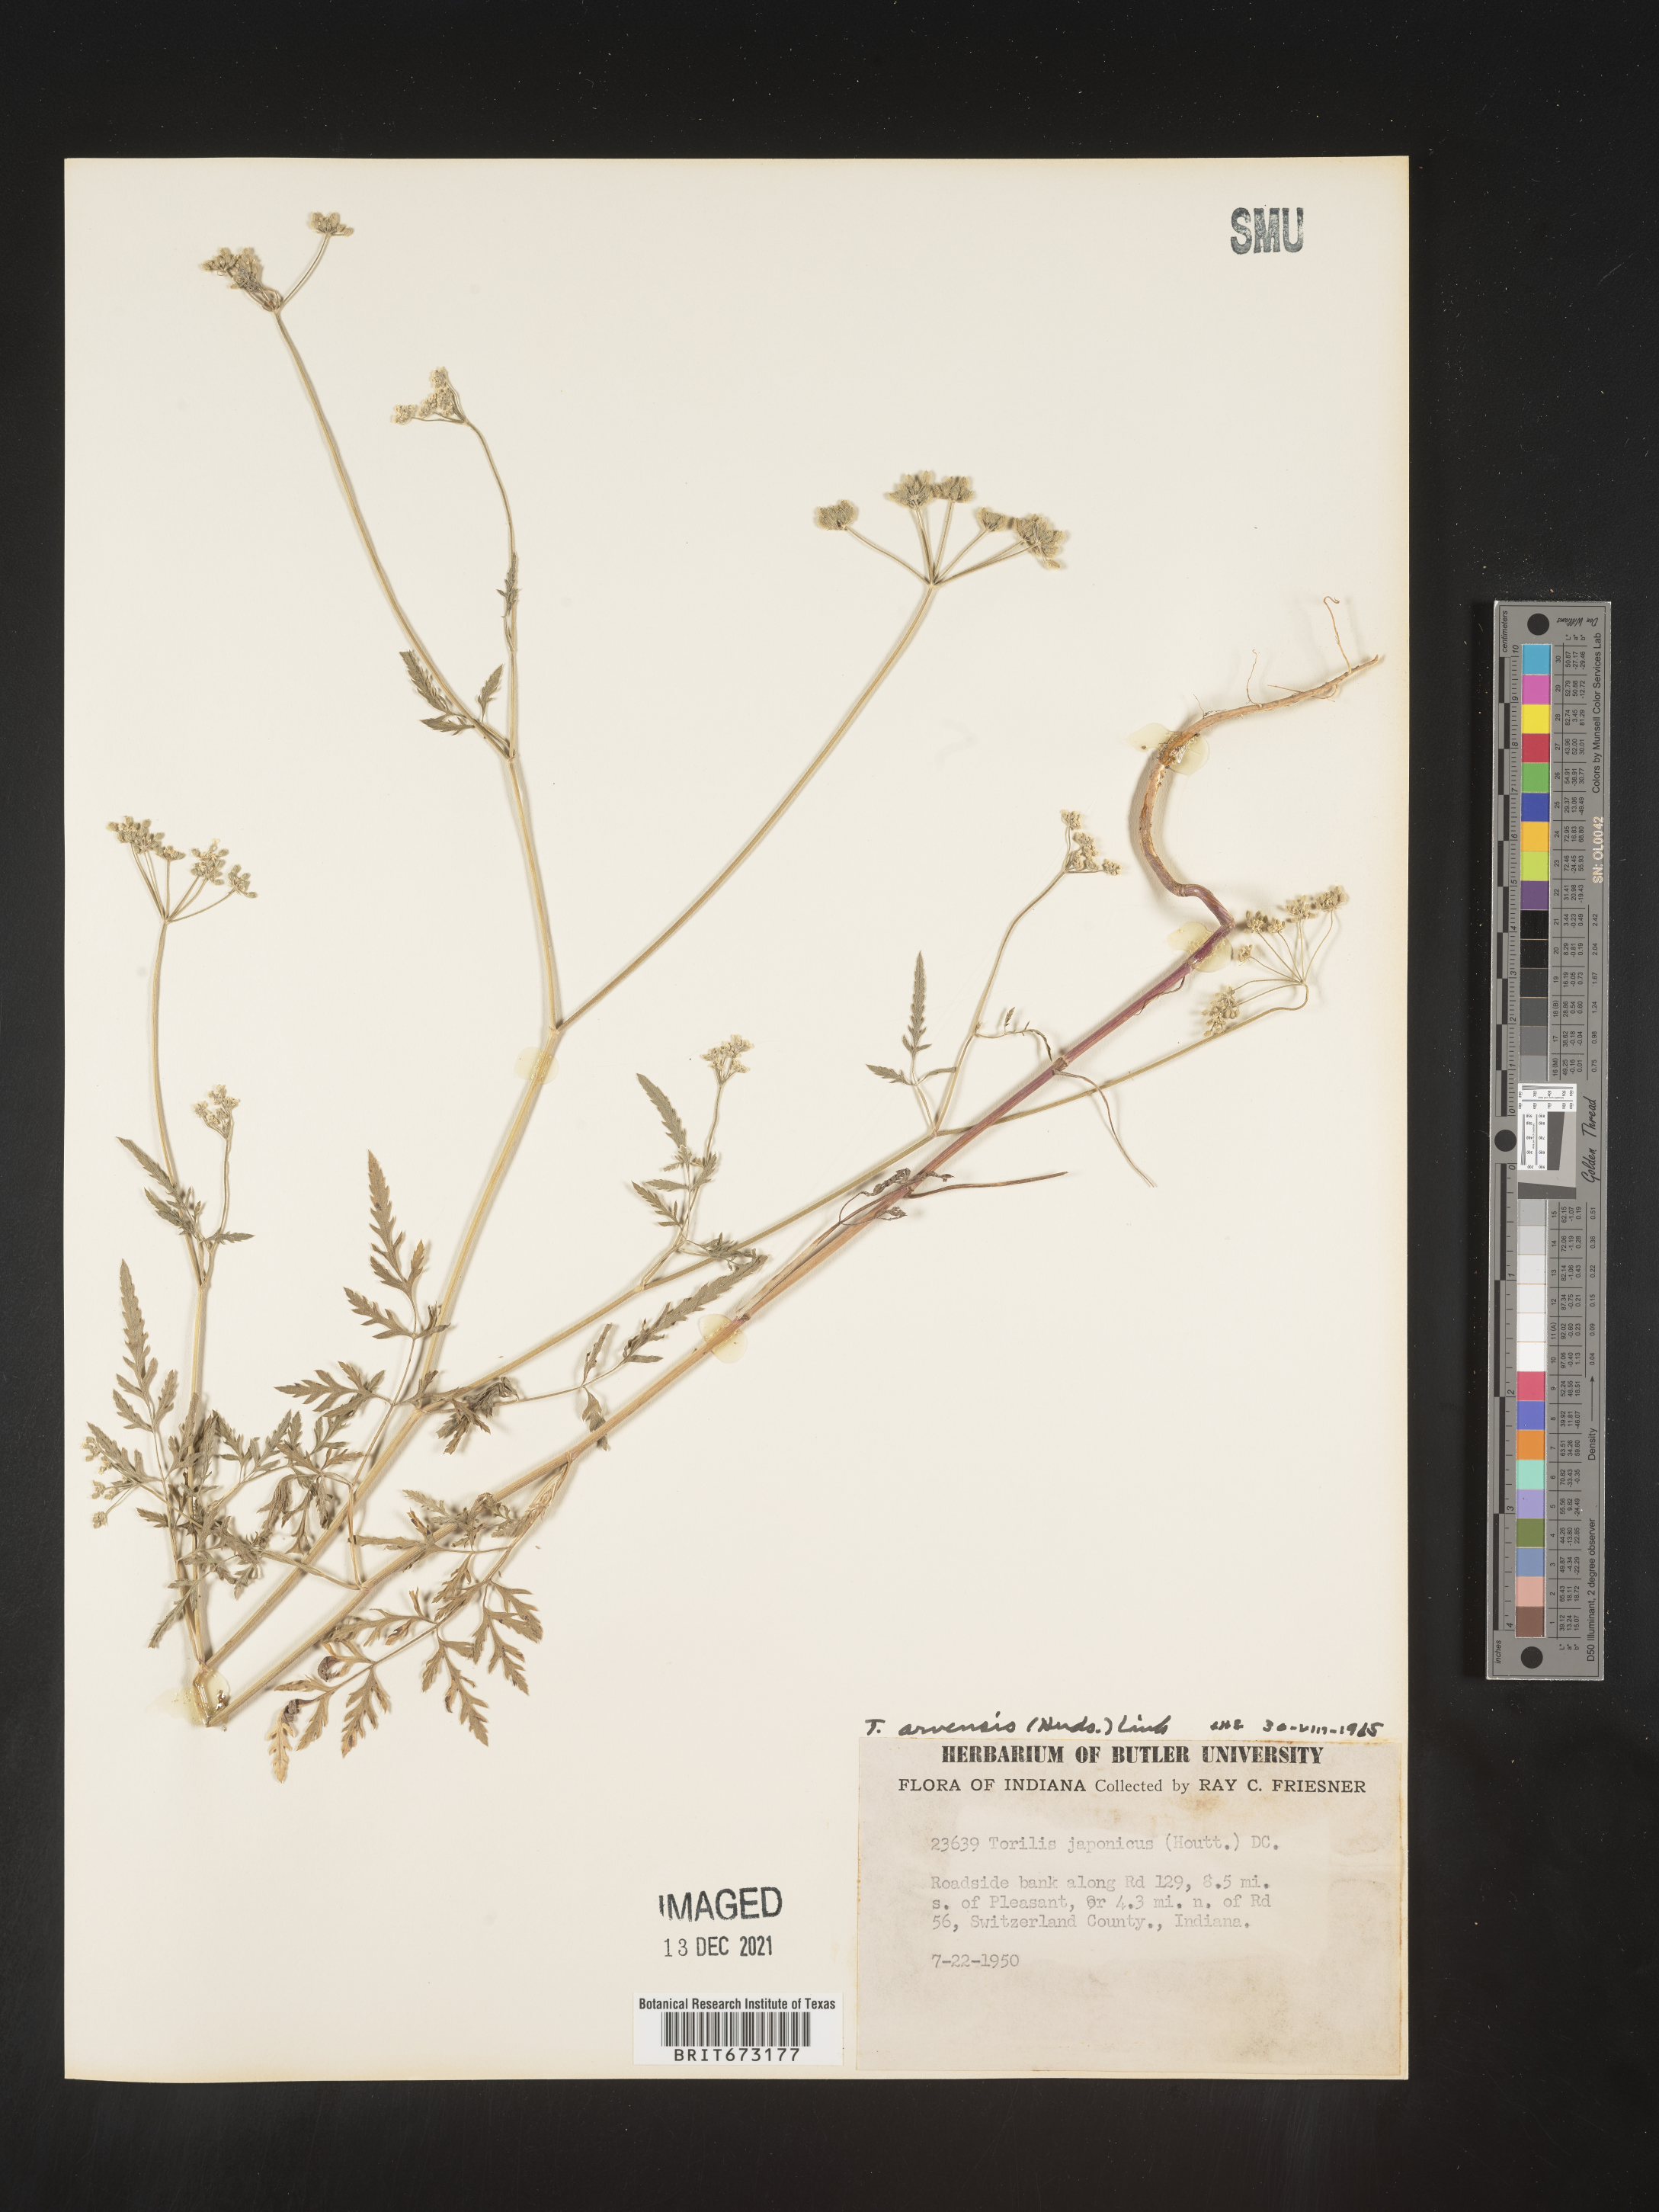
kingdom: Plantae
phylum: Tracheophyta
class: Magnoliopsida
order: Apiales
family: Apiaceae
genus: Torilis
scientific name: Torilis arvensis
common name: Spreading hedge-parsley
